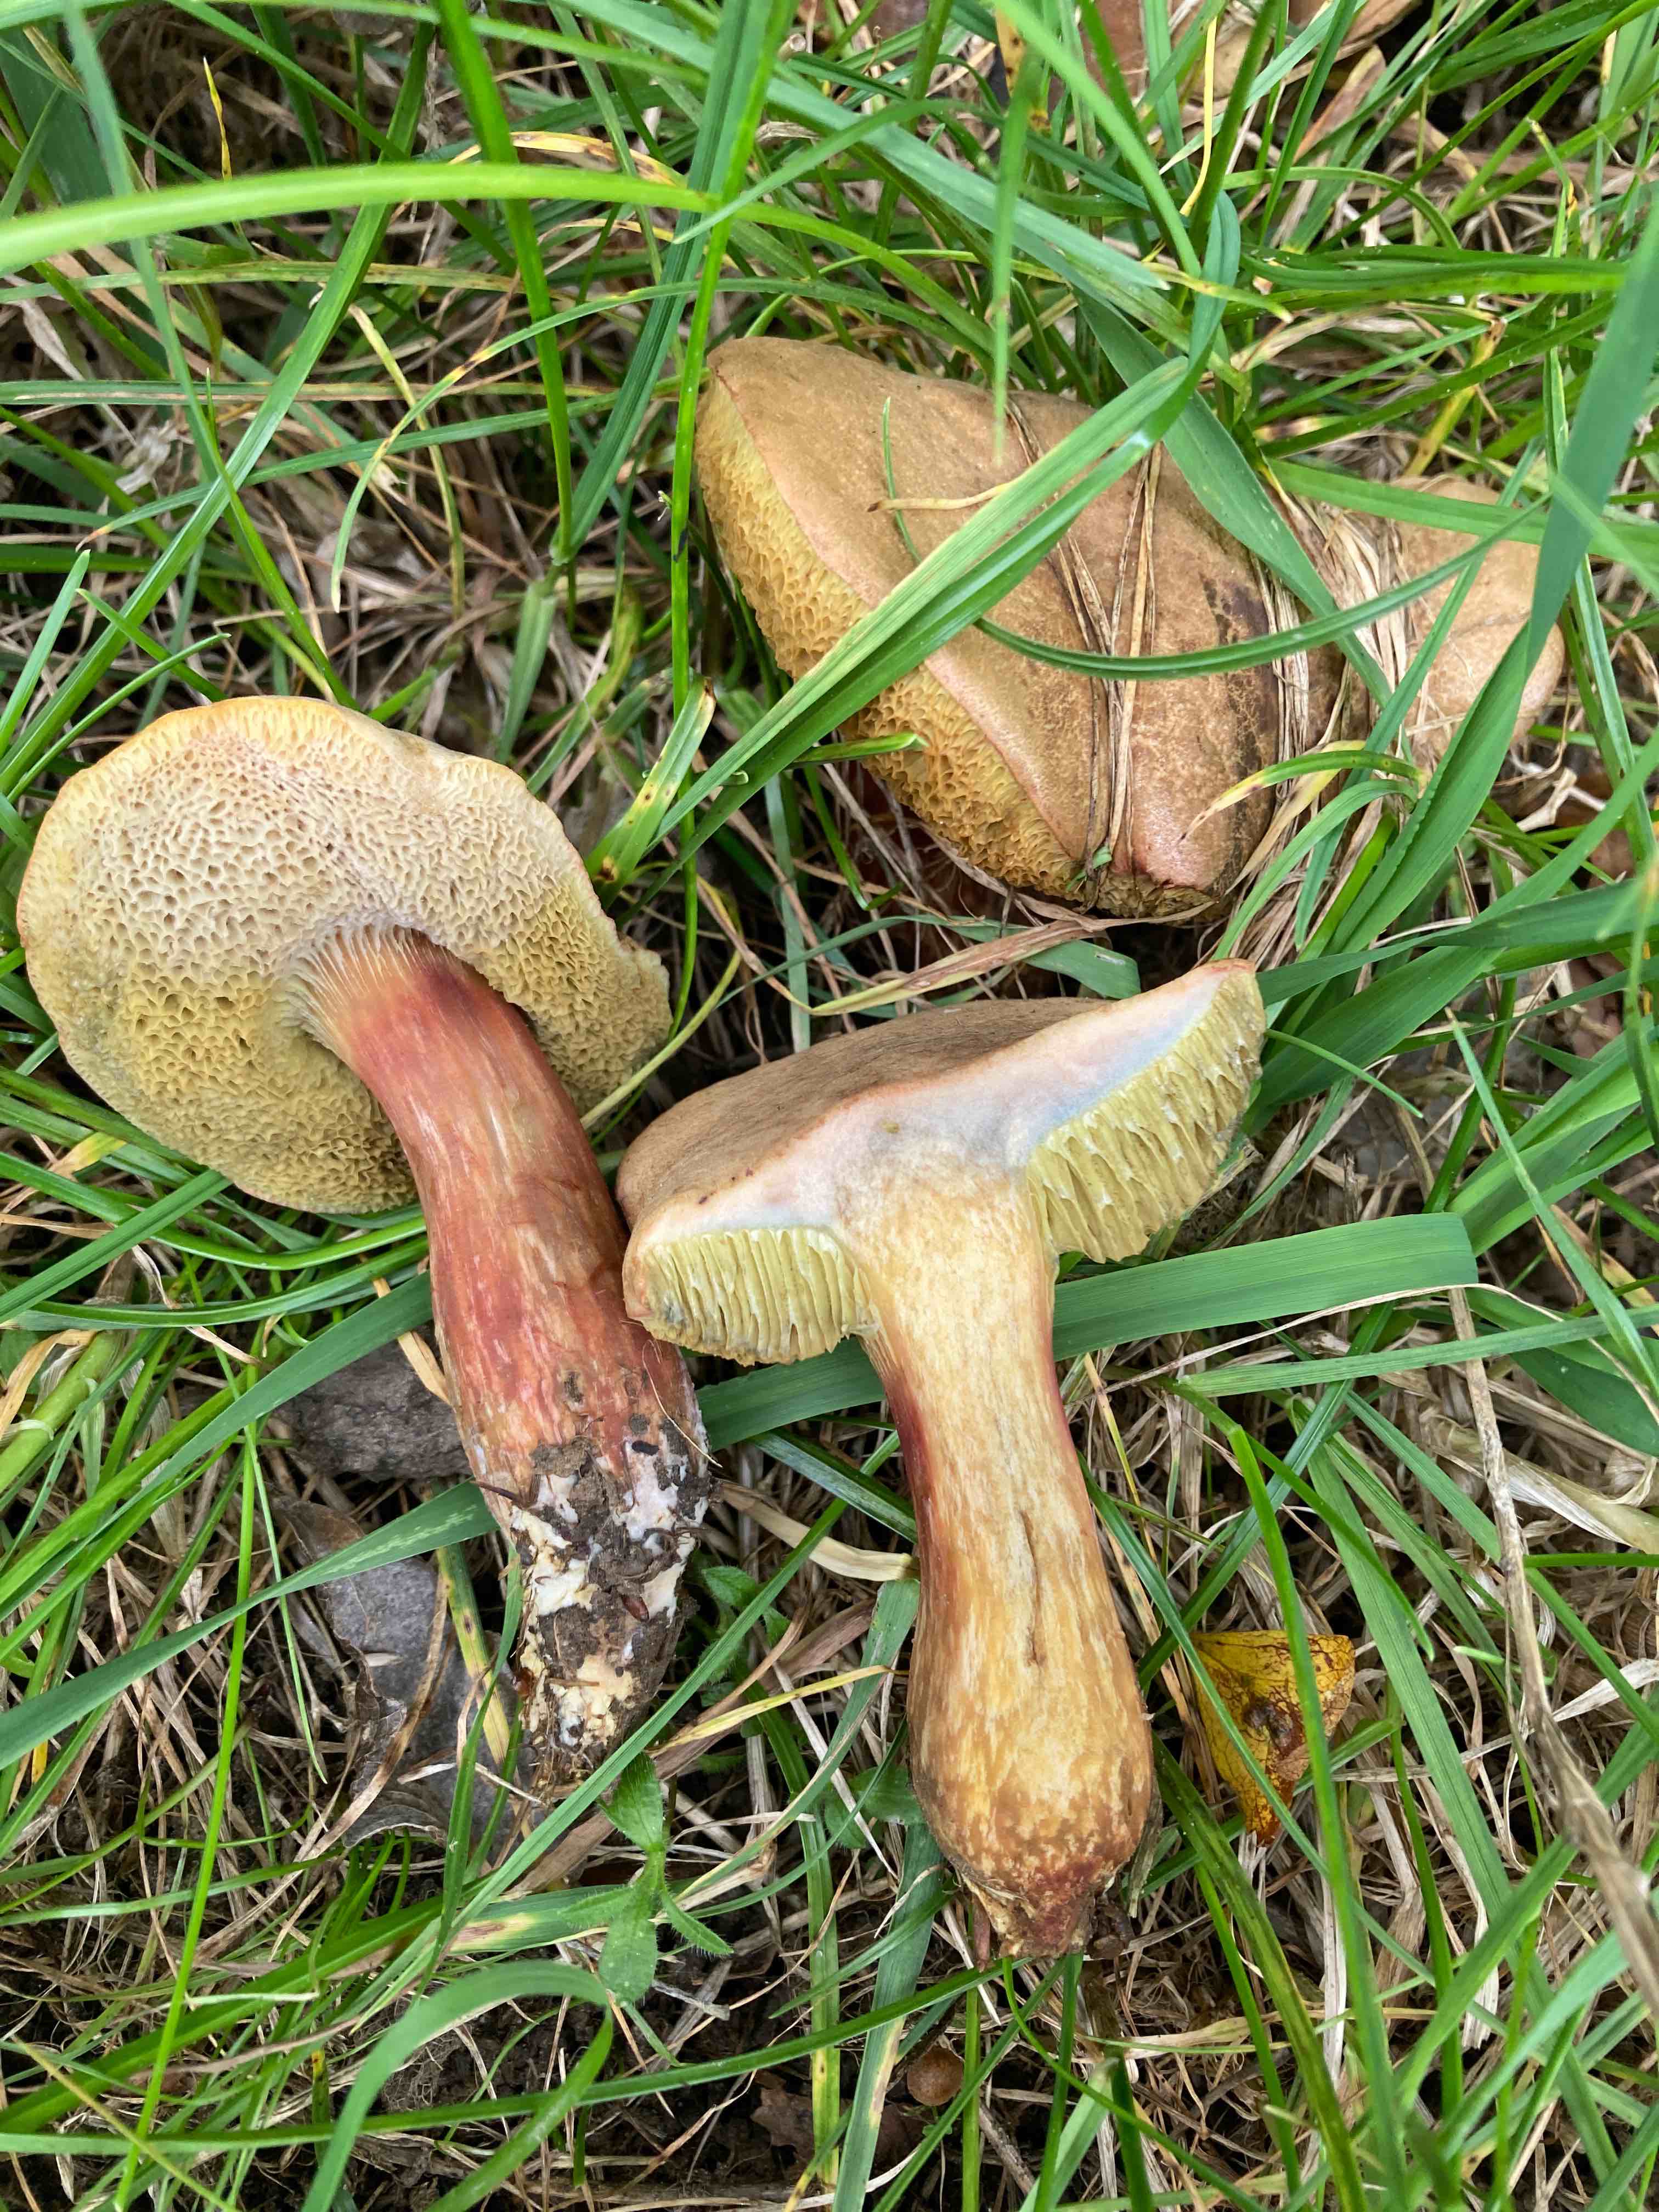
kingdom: Fungi
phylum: Basidiomycota
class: Agaricomycetes
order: Boletales
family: Boletaceae
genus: Hortiboletus
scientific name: Hortiboletus bubalinus
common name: aurora-rørhat
